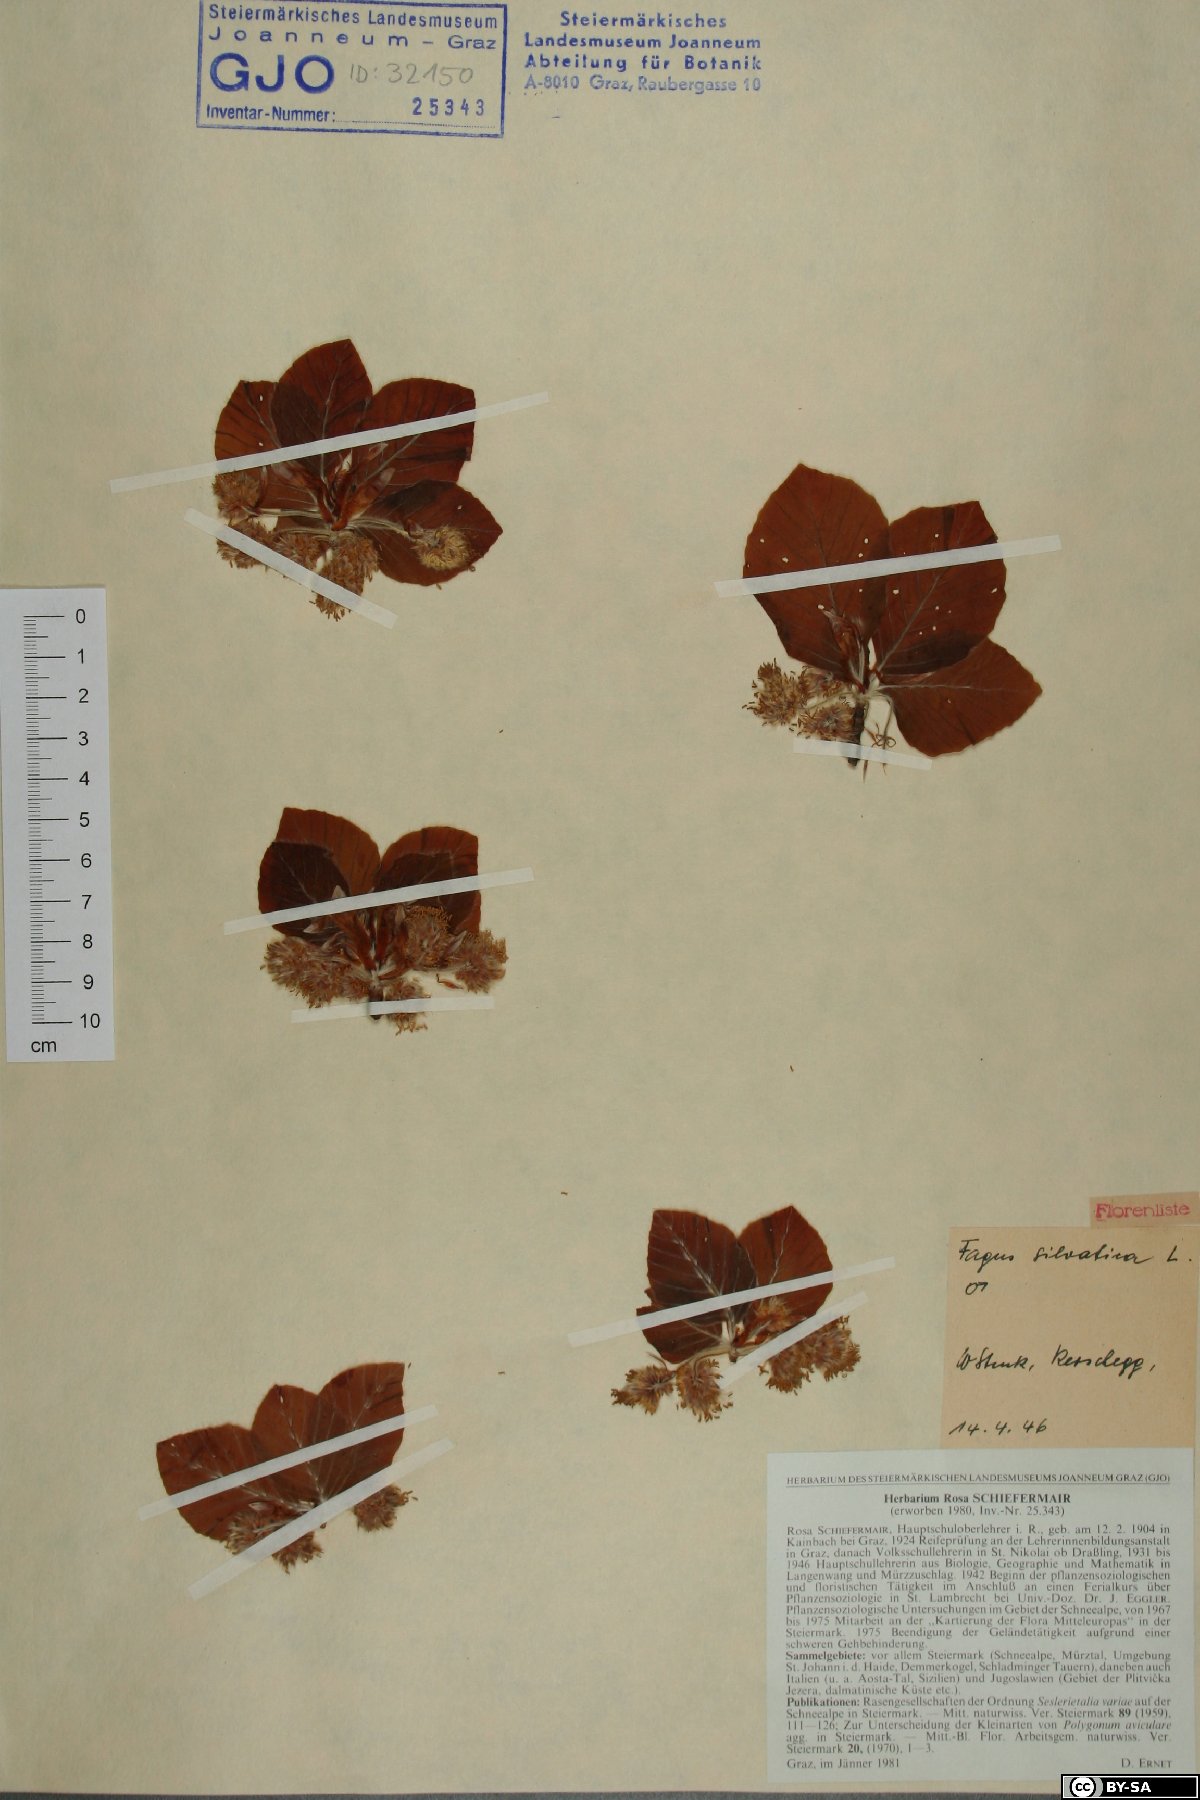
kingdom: Plantae
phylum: Tracheophyta
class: Magnoliopsida
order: Fagales
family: Fagaceae
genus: Fagus
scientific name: Fagus sylvatica
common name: Beech
